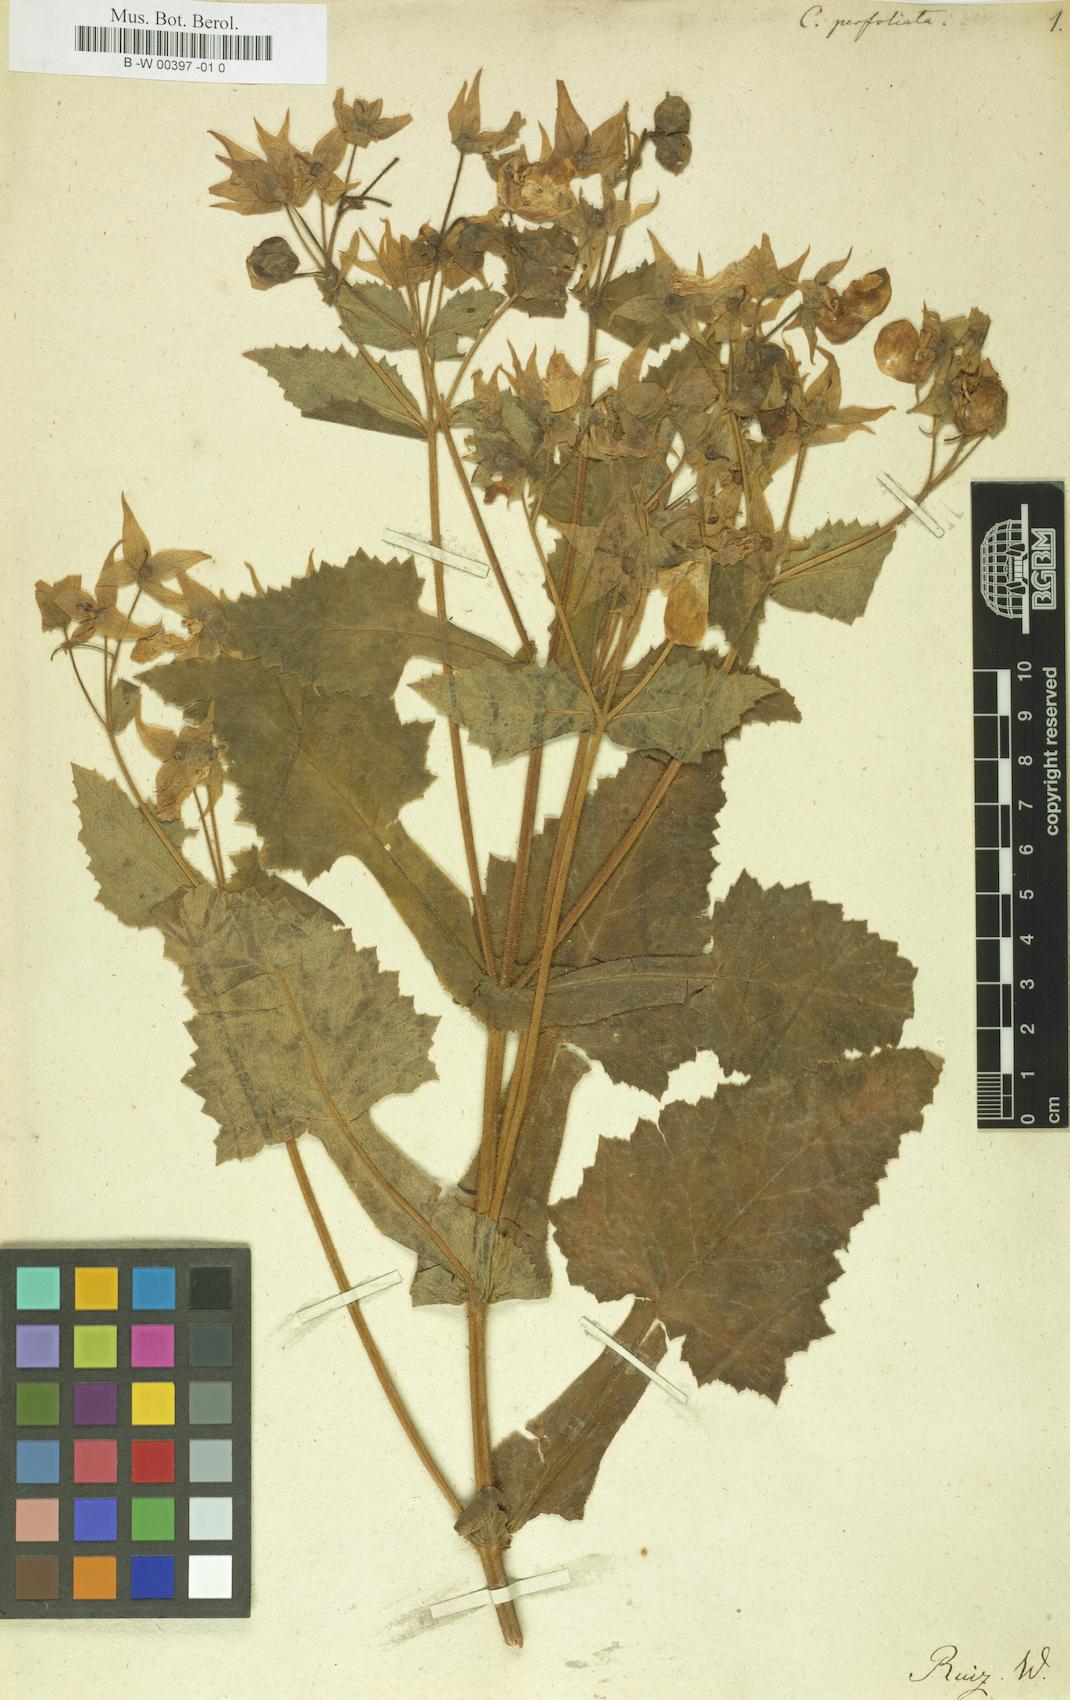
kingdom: Plantae
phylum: Tracheophyta
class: Magnoliopsida
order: Lamiales
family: Calceolariaceae
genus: Calceolaria
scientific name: Calceolaria perfoliata
